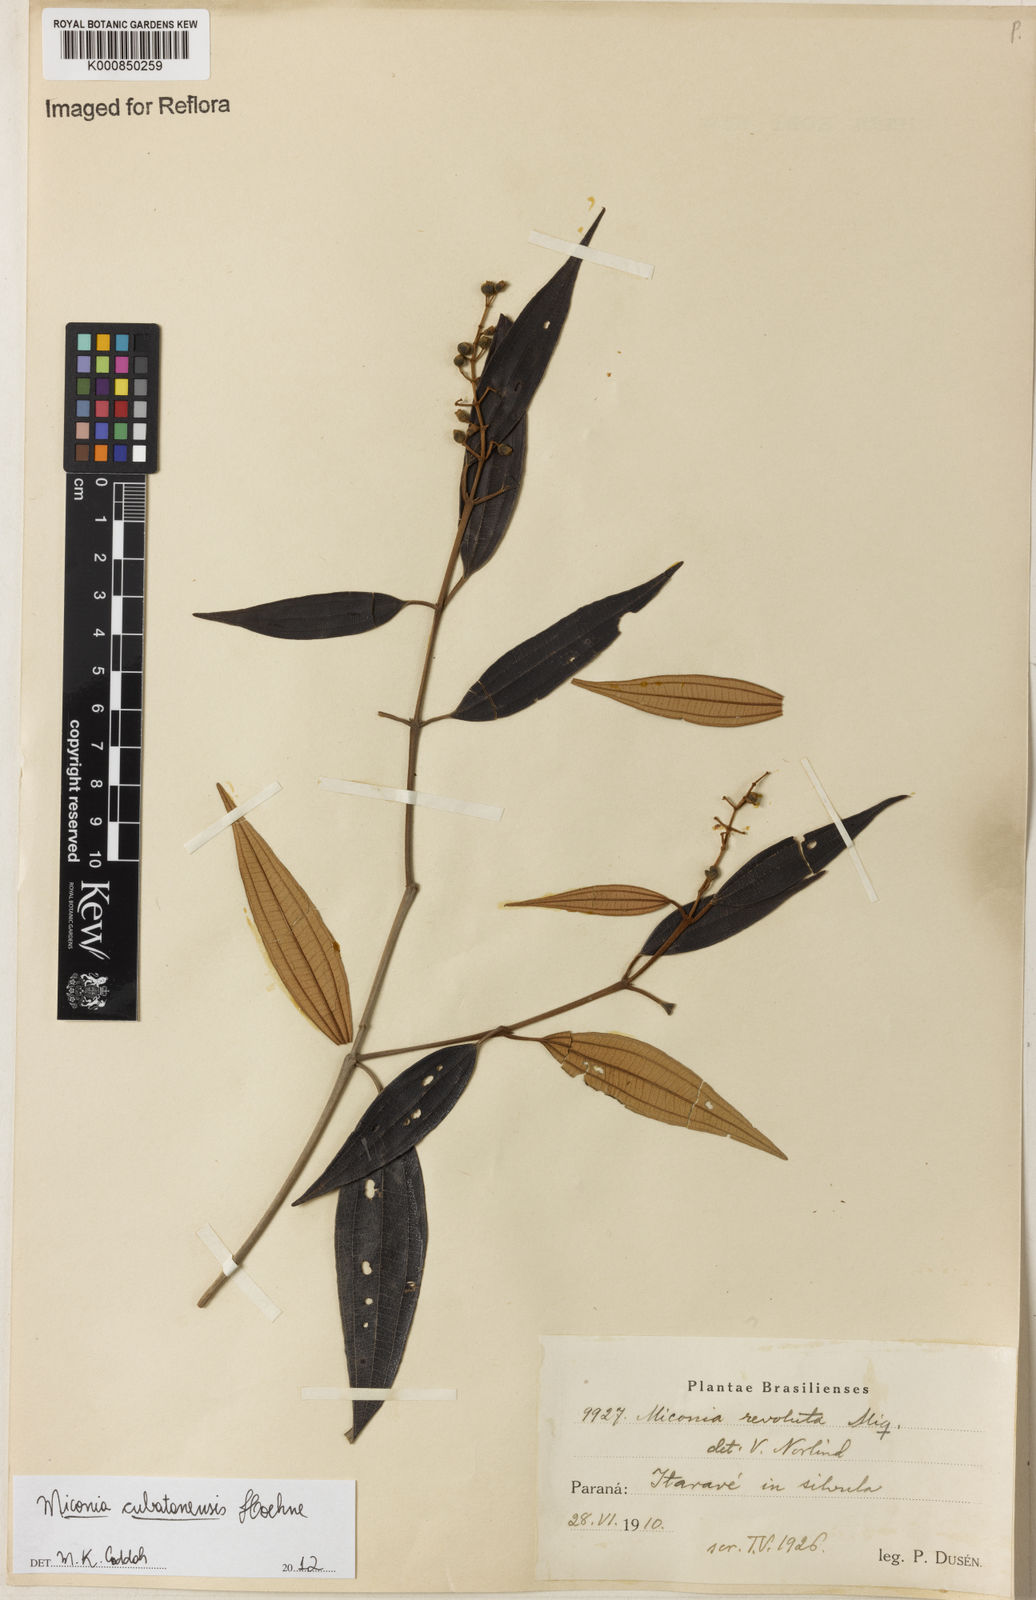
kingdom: Plantae
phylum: Tracheophyta
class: Magnoliopsida
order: Myrtales
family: Melastomataceae
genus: Miconia
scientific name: Miconia cubatanensis
